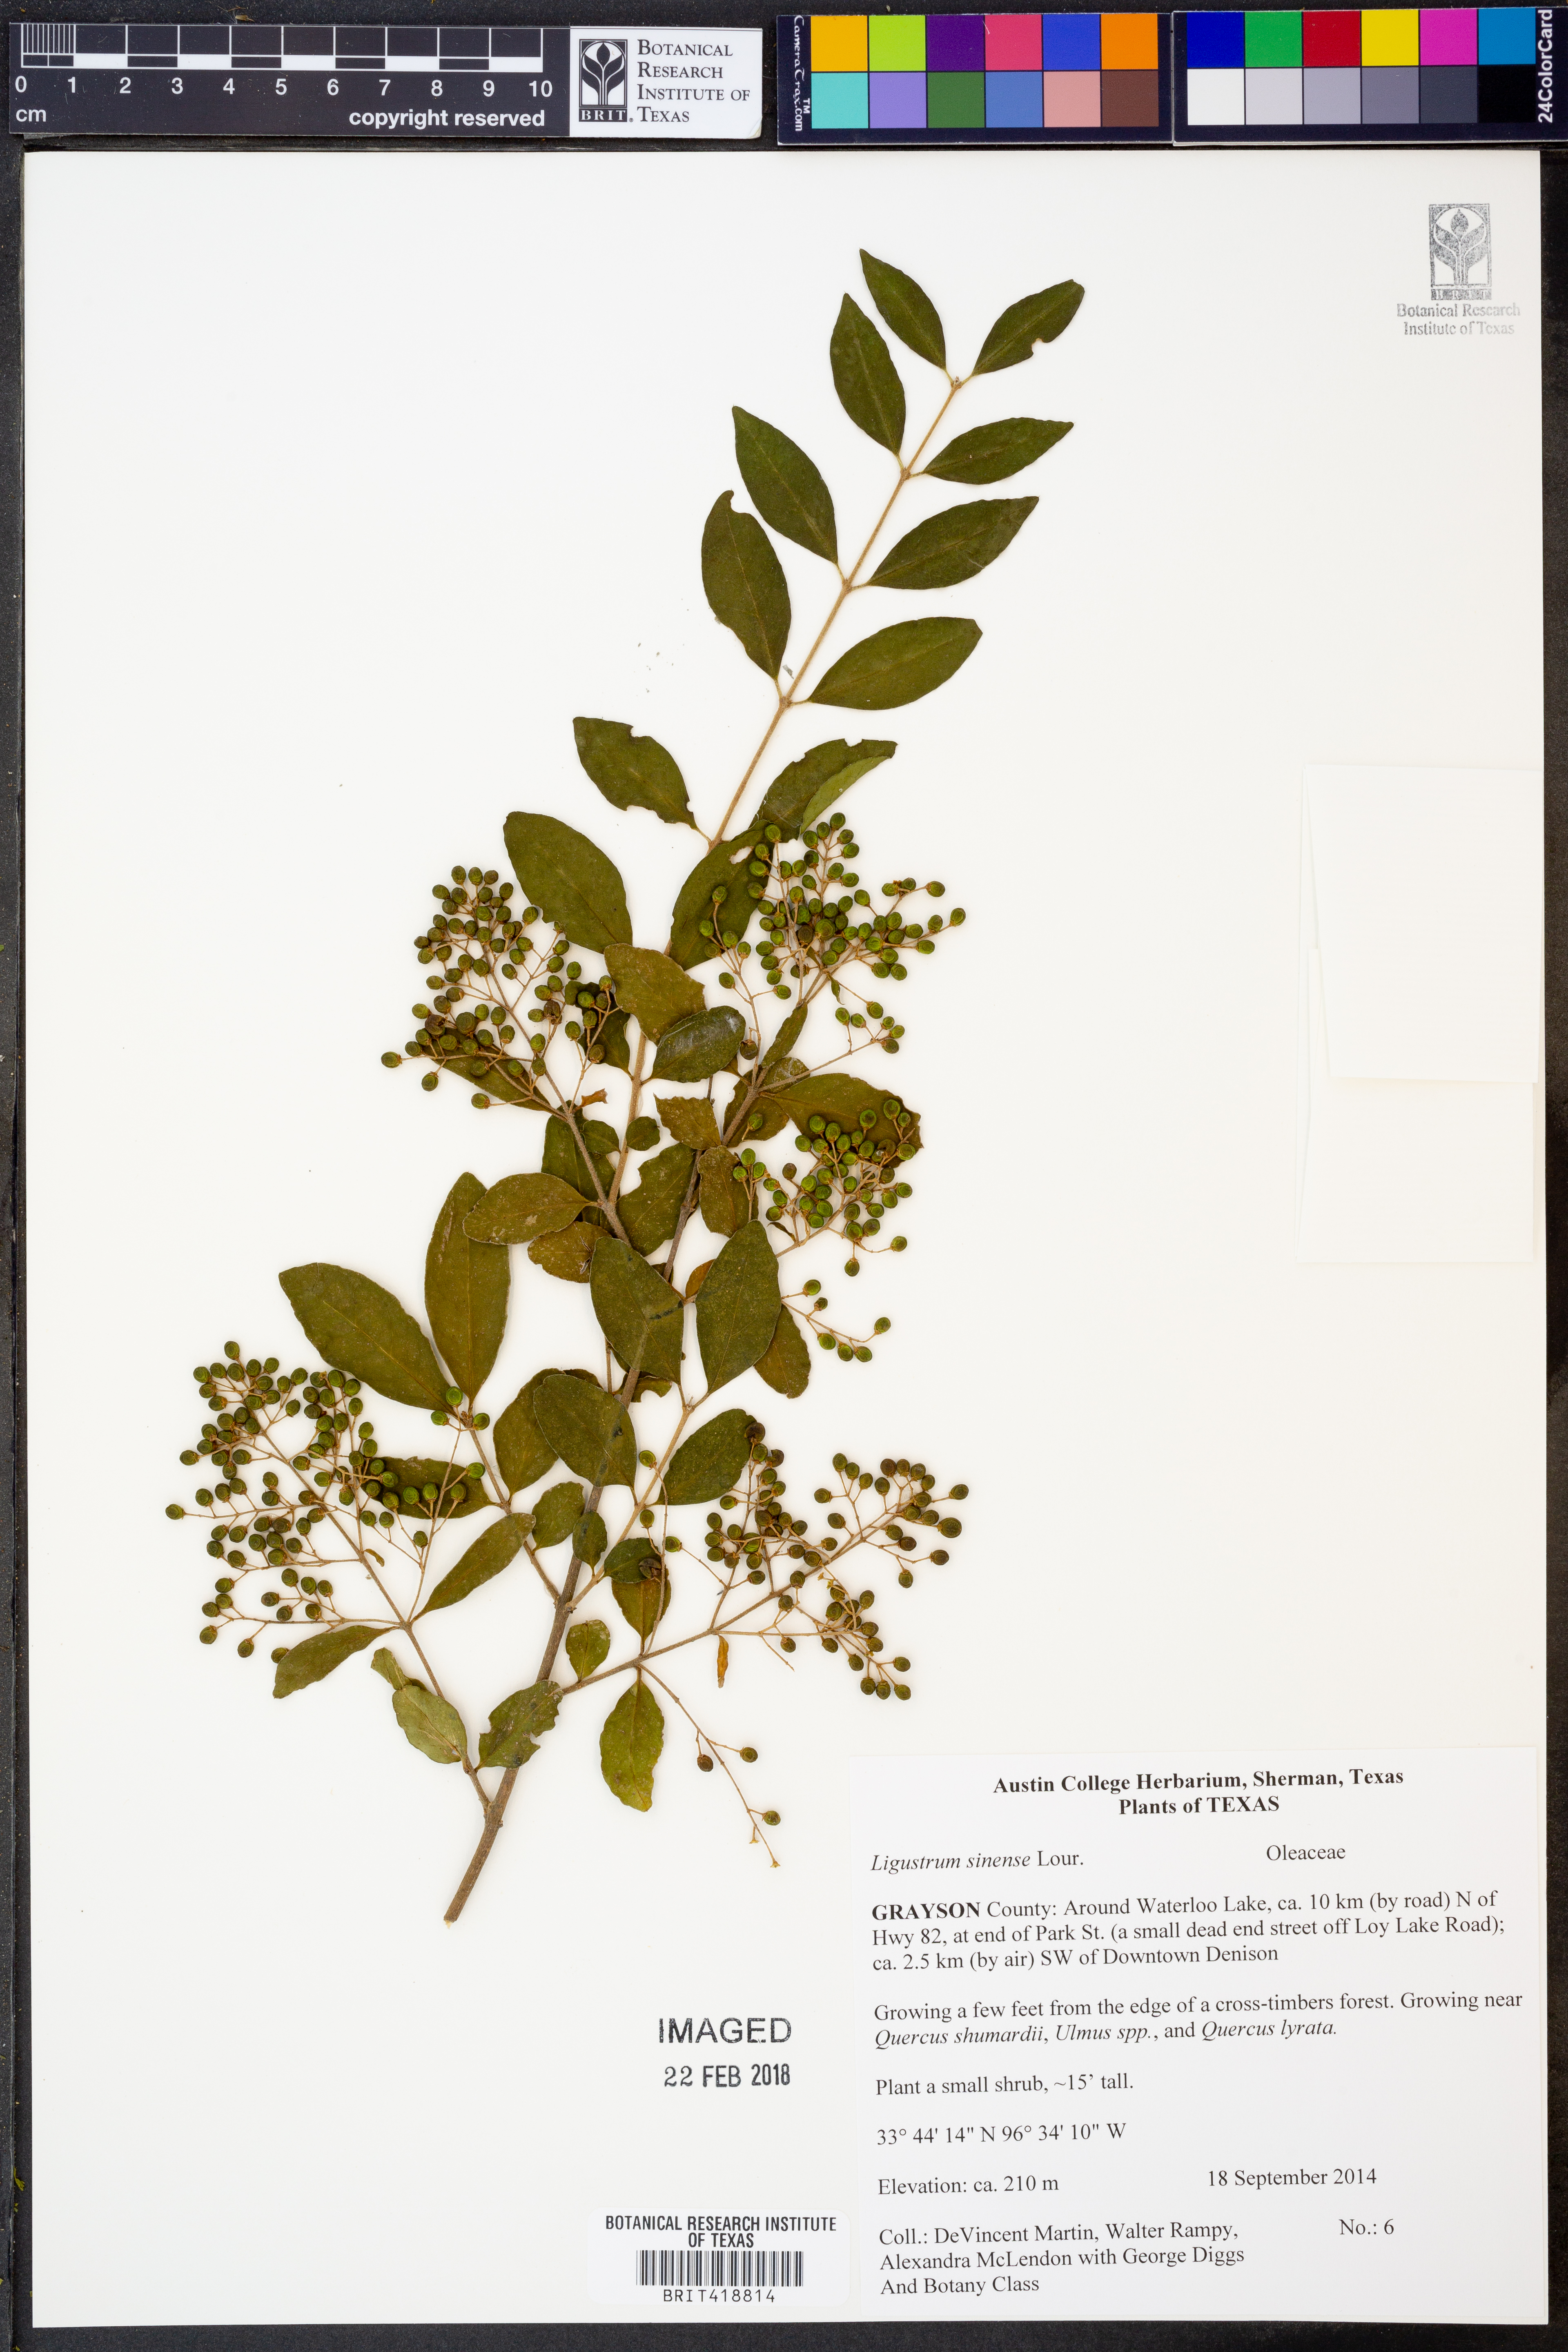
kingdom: Plantae
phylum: Tracheophyta
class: Magnoliopsida
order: Lamiales
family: Oleaceae
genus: Ligustrum
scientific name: Ligustrum sinense
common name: Chinese privet
